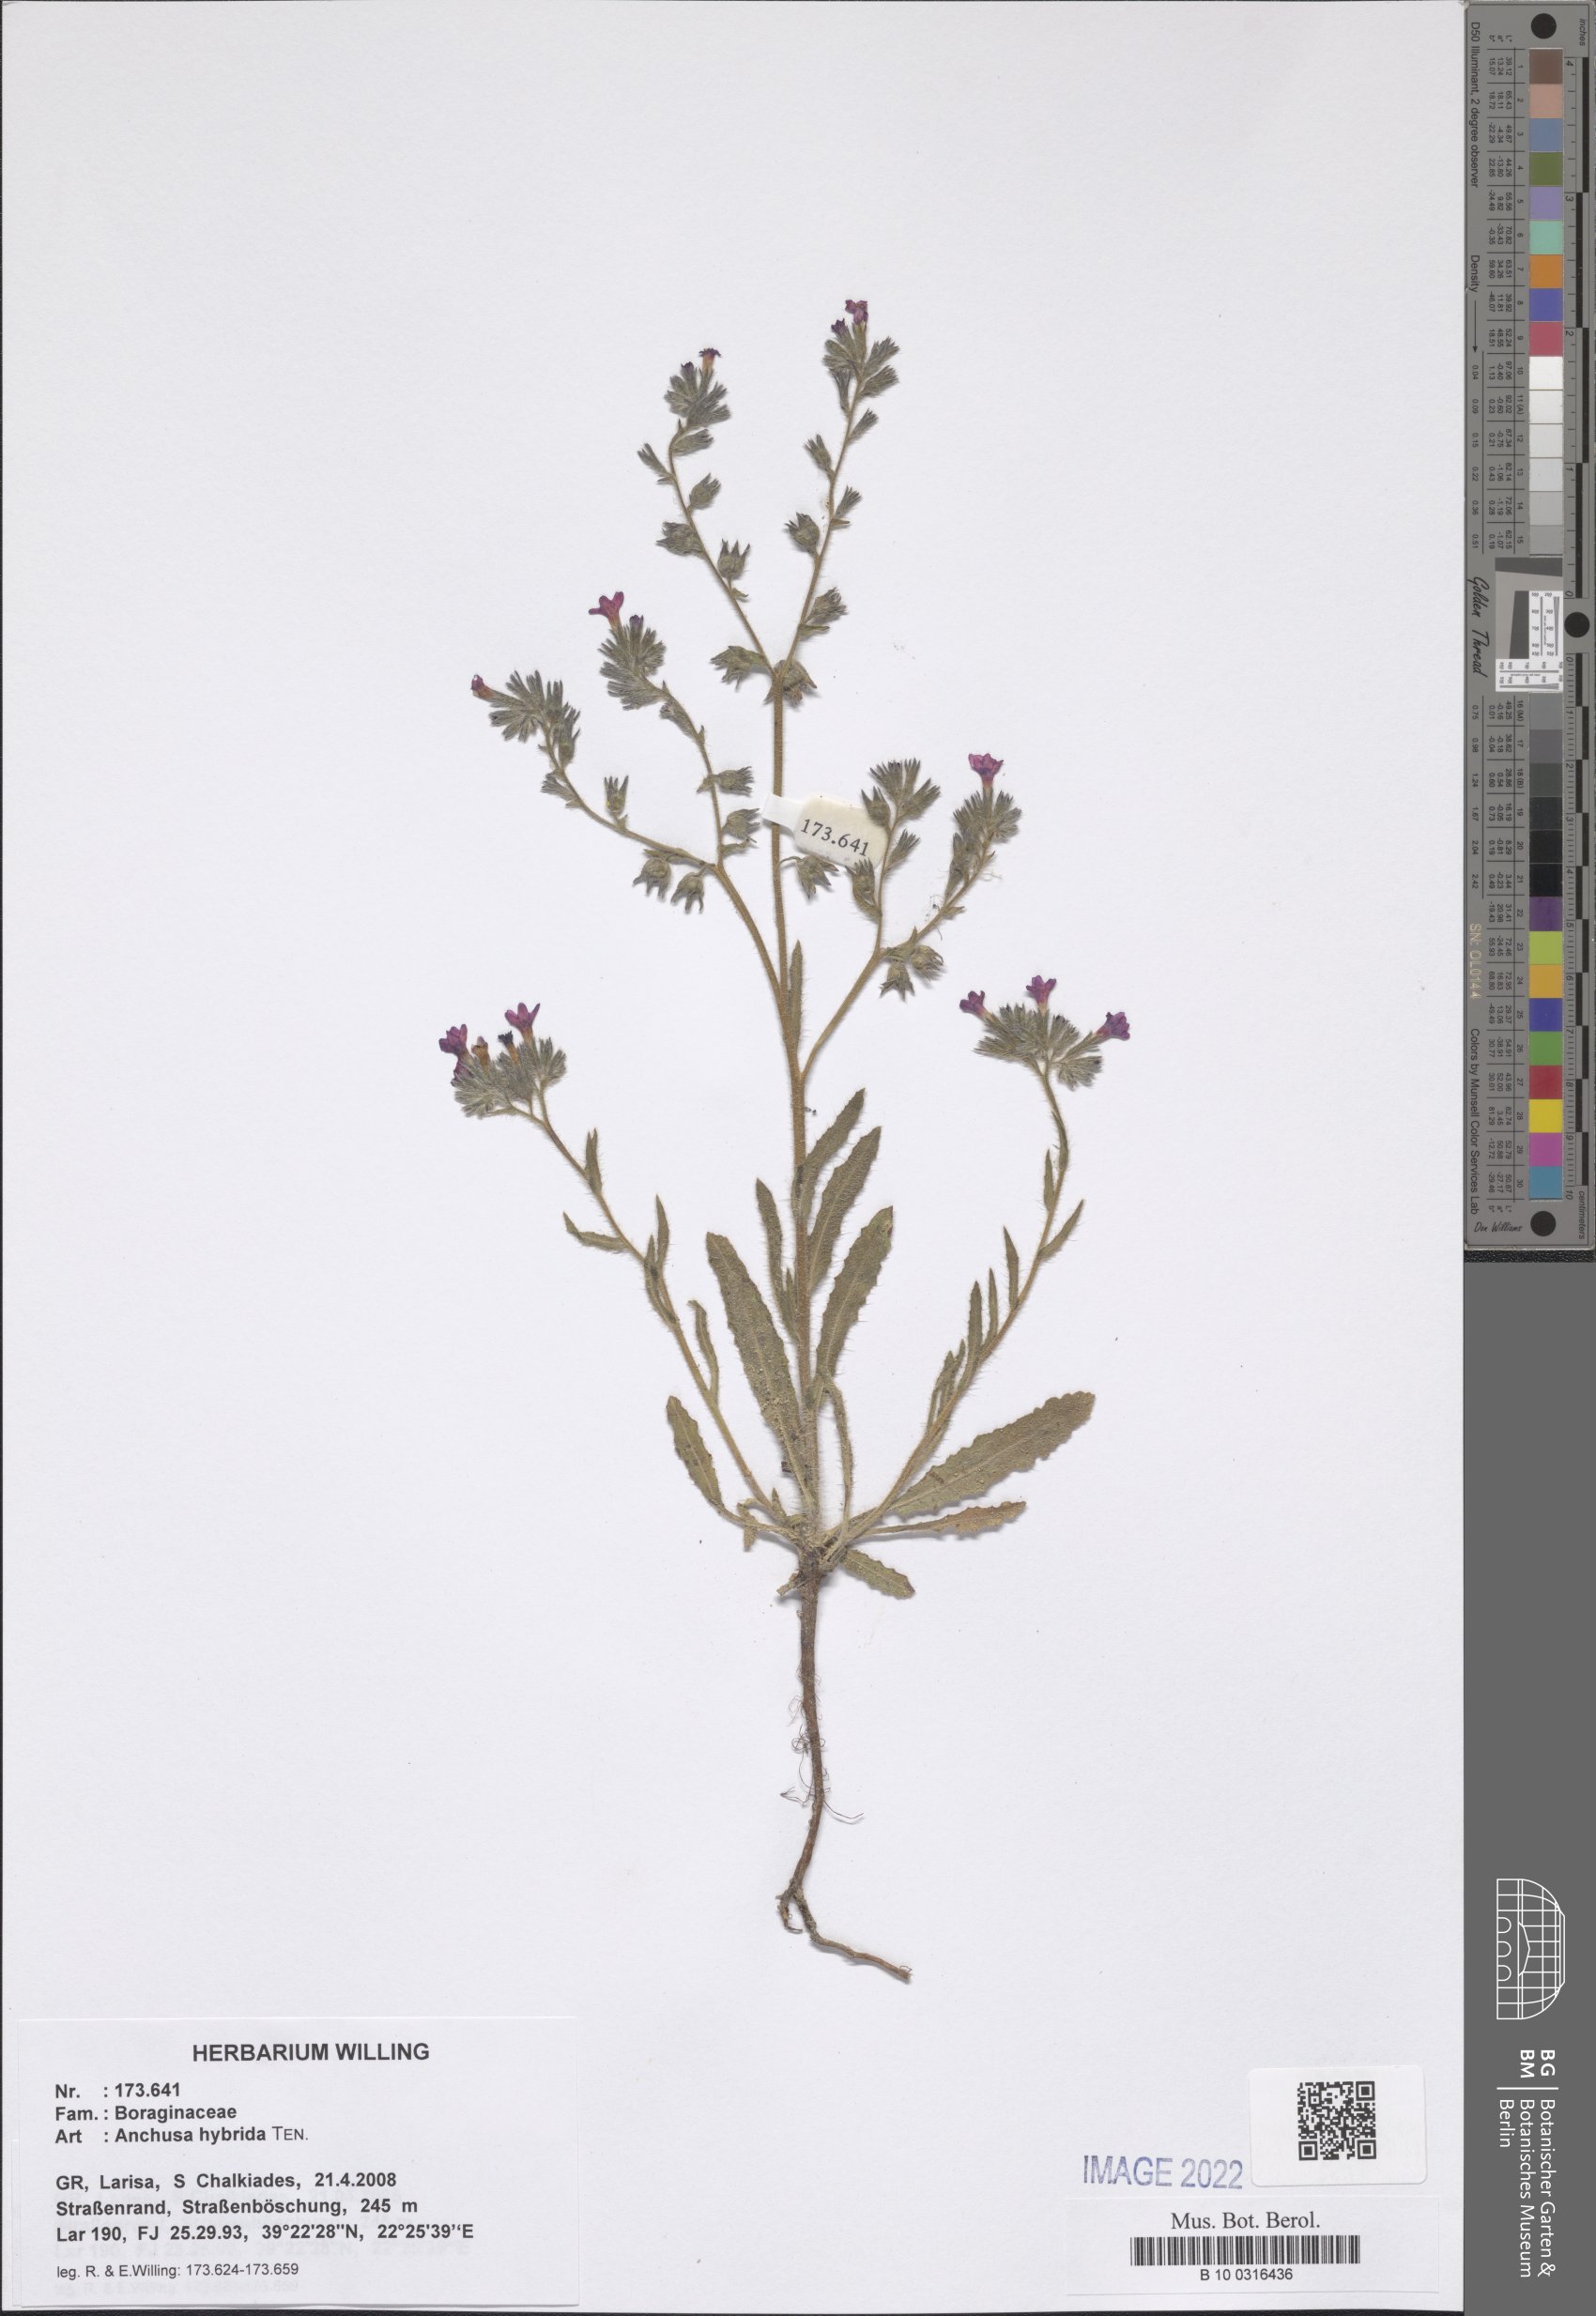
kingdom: Plantae
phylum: Tracheophyta
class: Magnoliopsida
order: Boraginales
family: Boraginaceae
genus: Anchusa
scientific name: Anchusa hybrida
